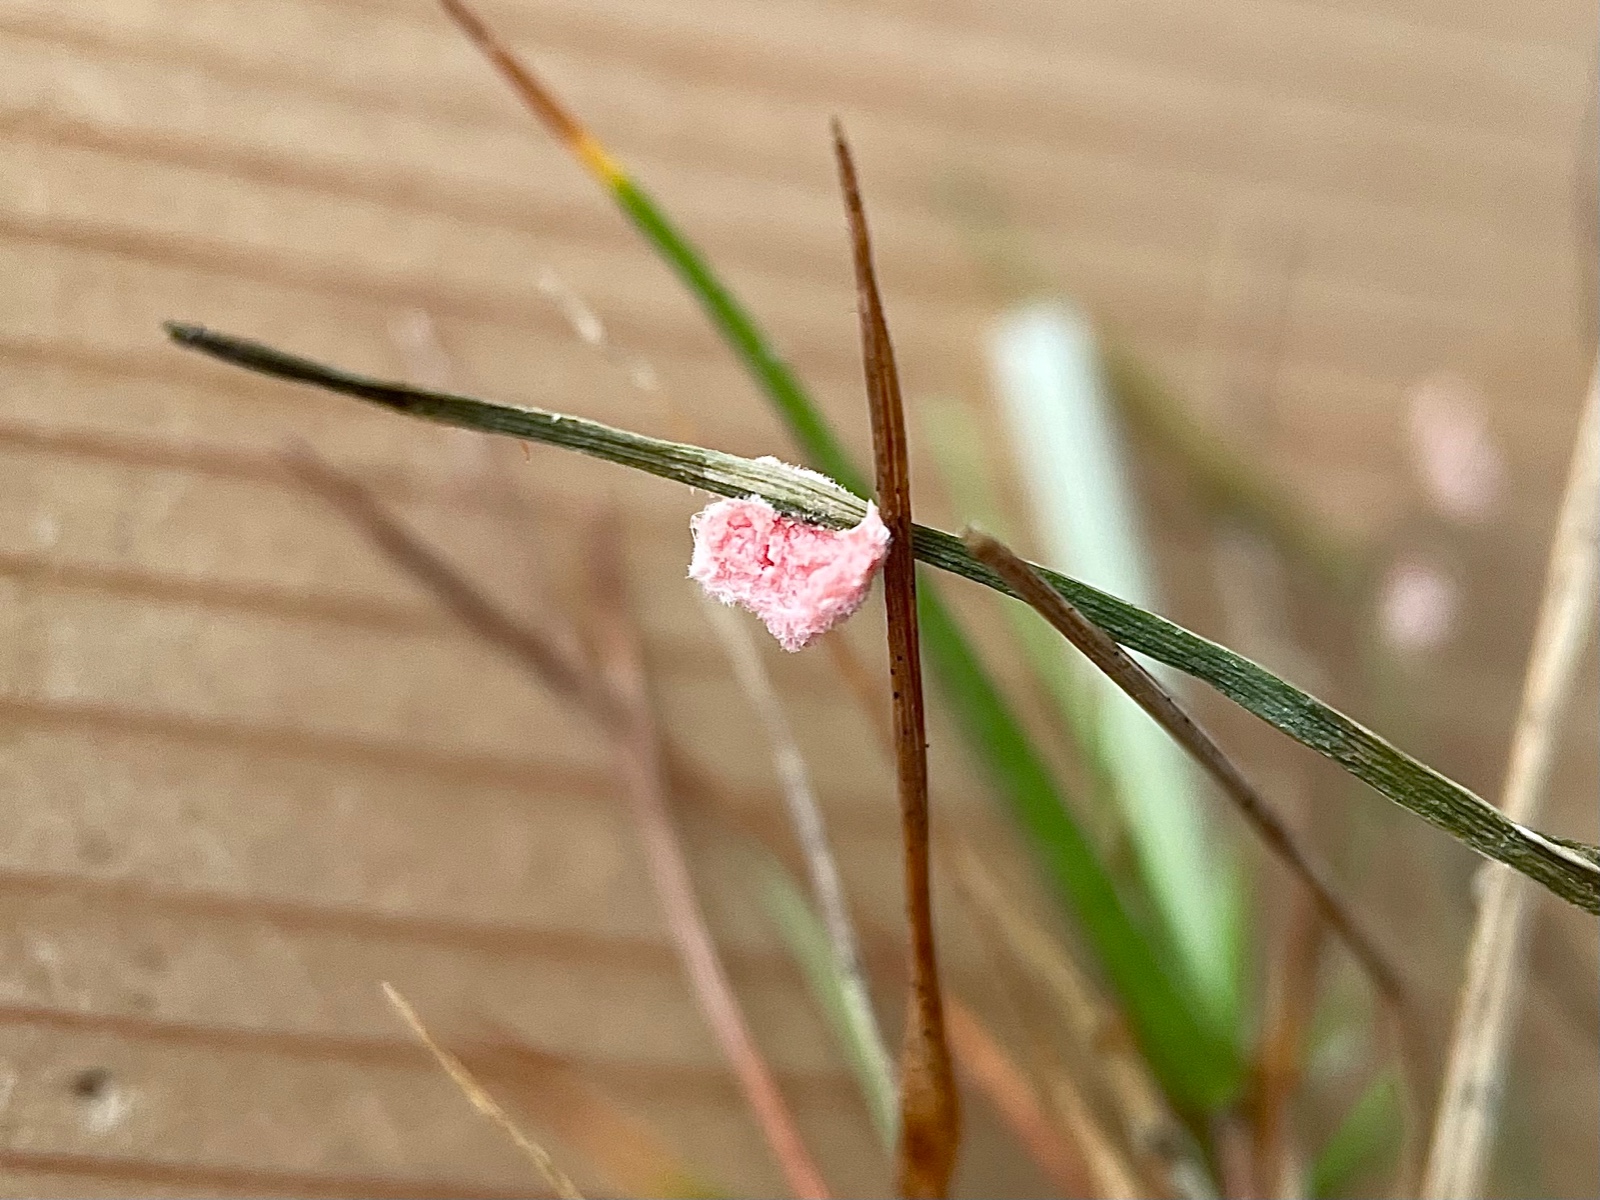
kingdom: Fungi
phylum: Basidiomycota
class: Agaricomycetes
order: Corticiales
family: Corticiaceae
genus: Laetisaria
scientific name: Laetisaria
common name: rødtråd
